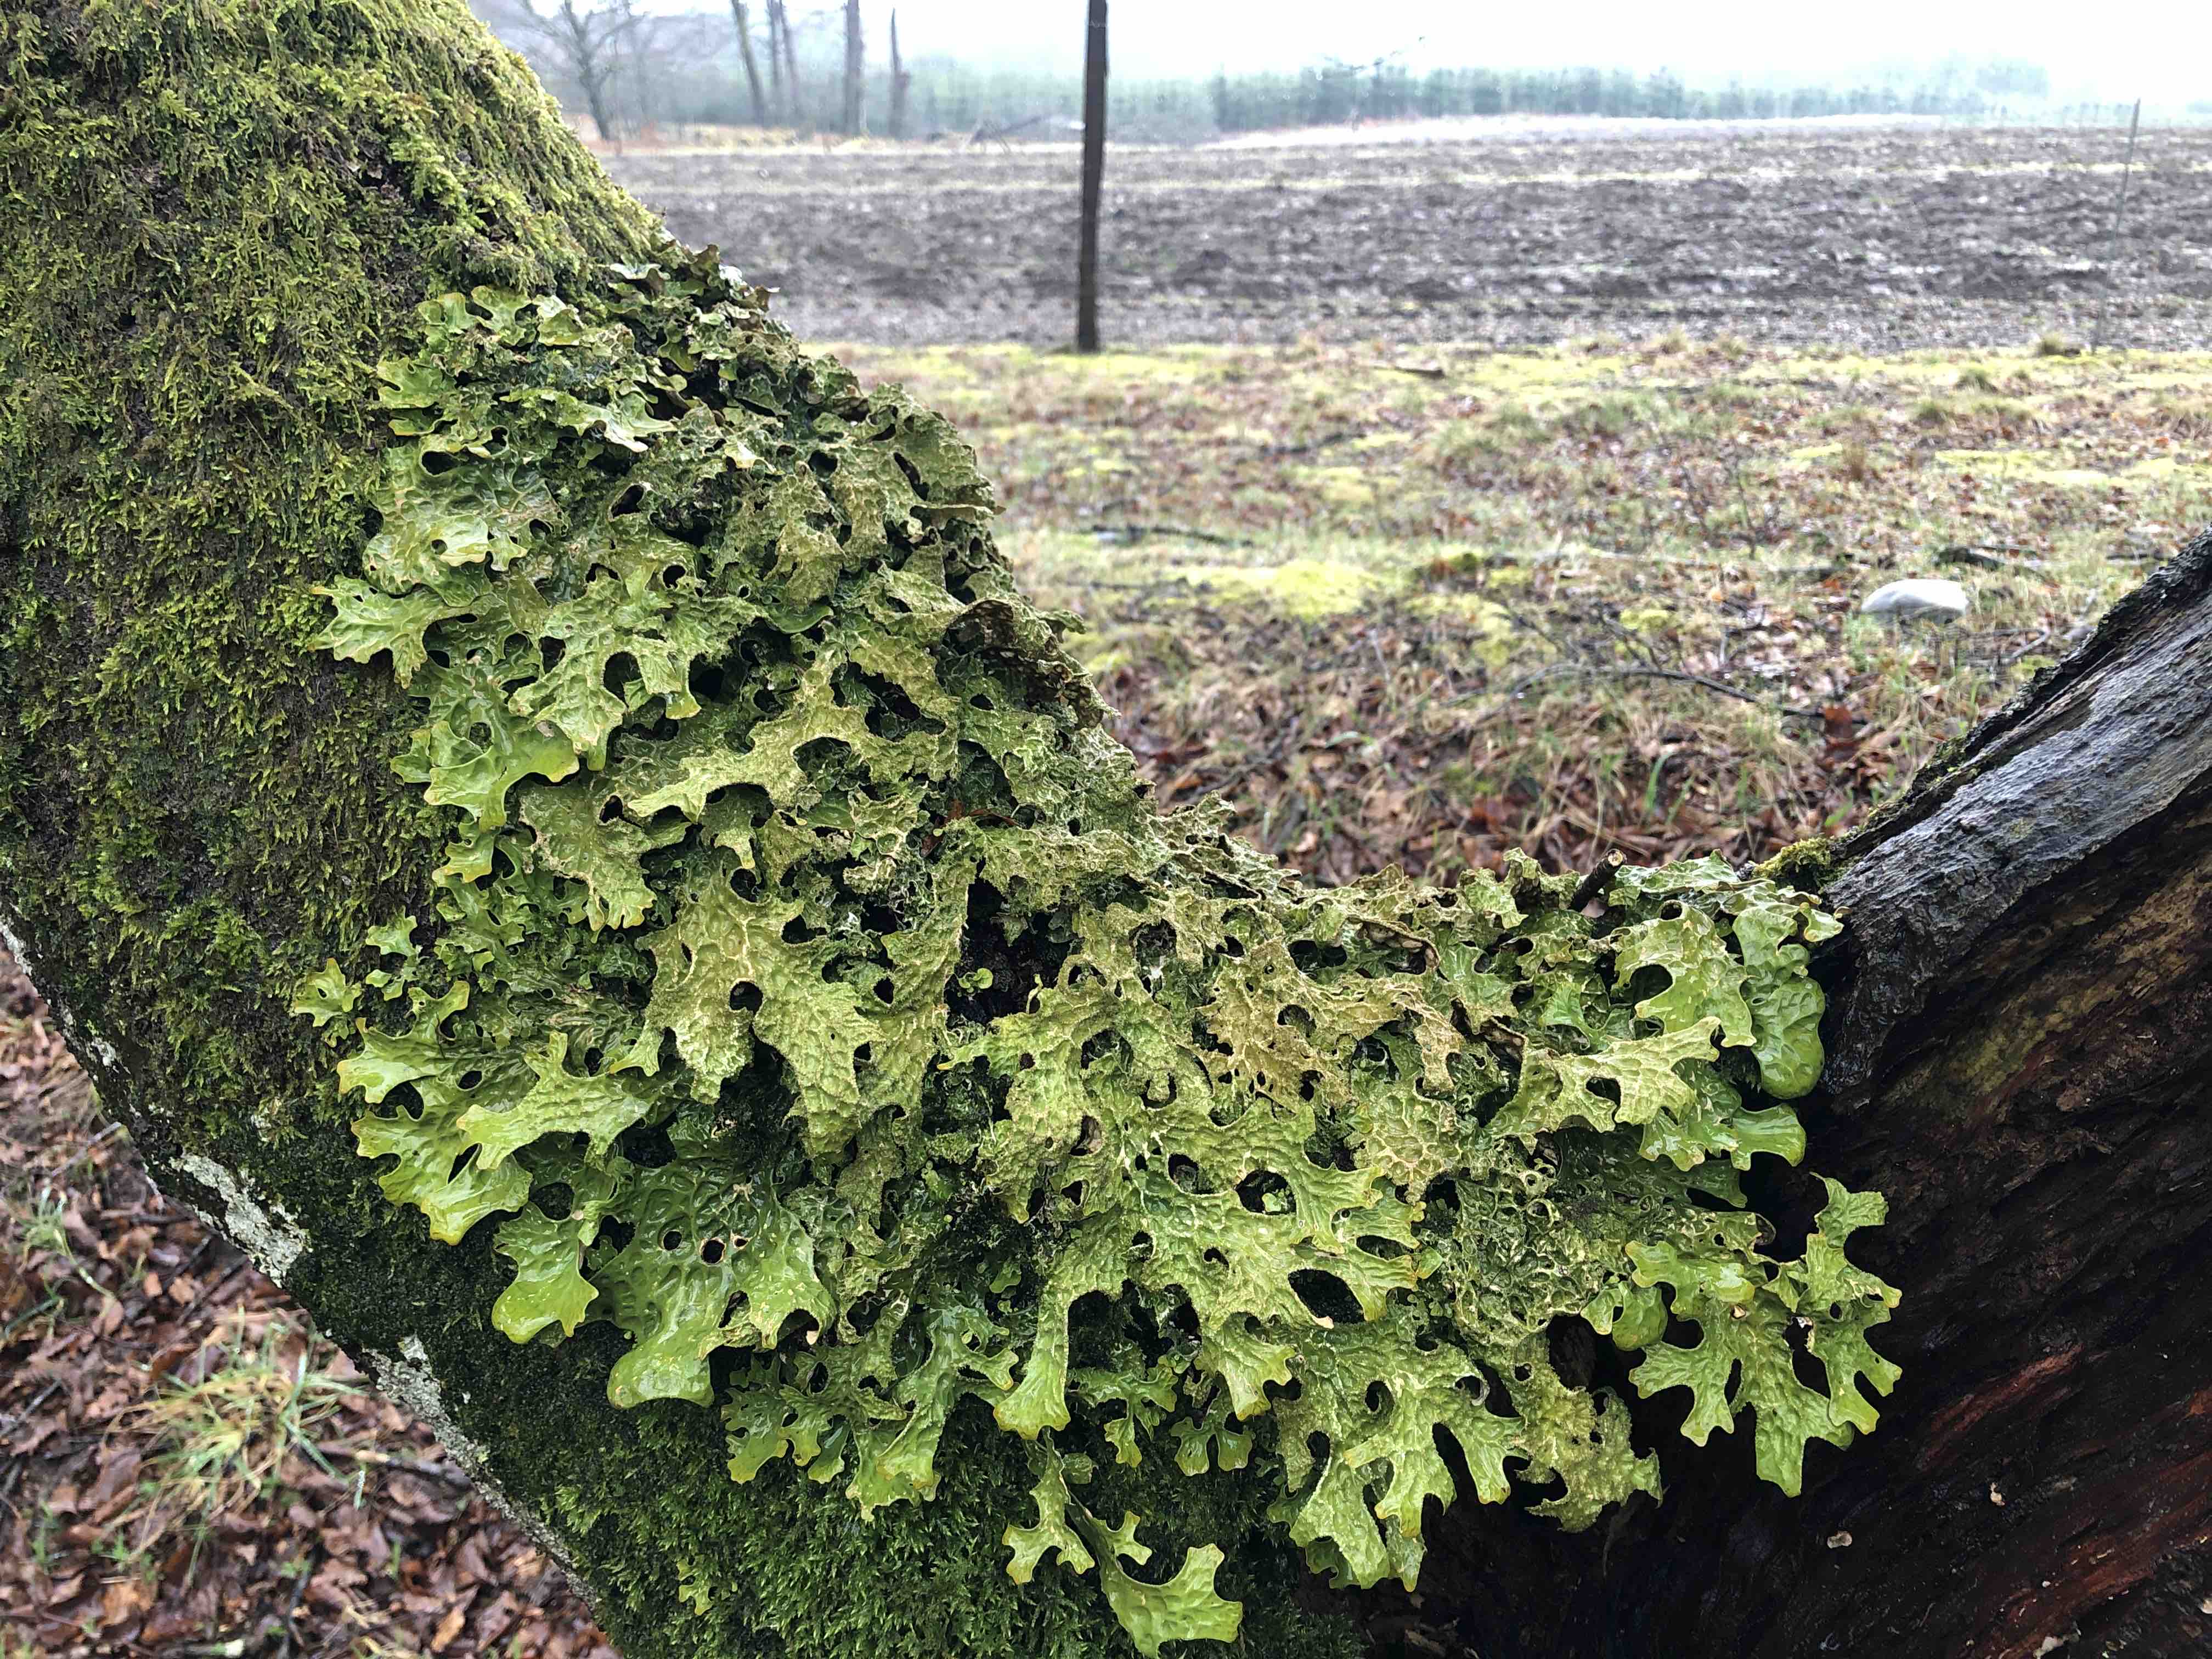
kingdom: Fungi
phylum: Ascomycota
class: Lecanoromycetes
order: Peltigerales
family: Lobariaceae
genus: Lobaria
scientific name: Lobaria pulmonaria
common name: almindelig lungelav
